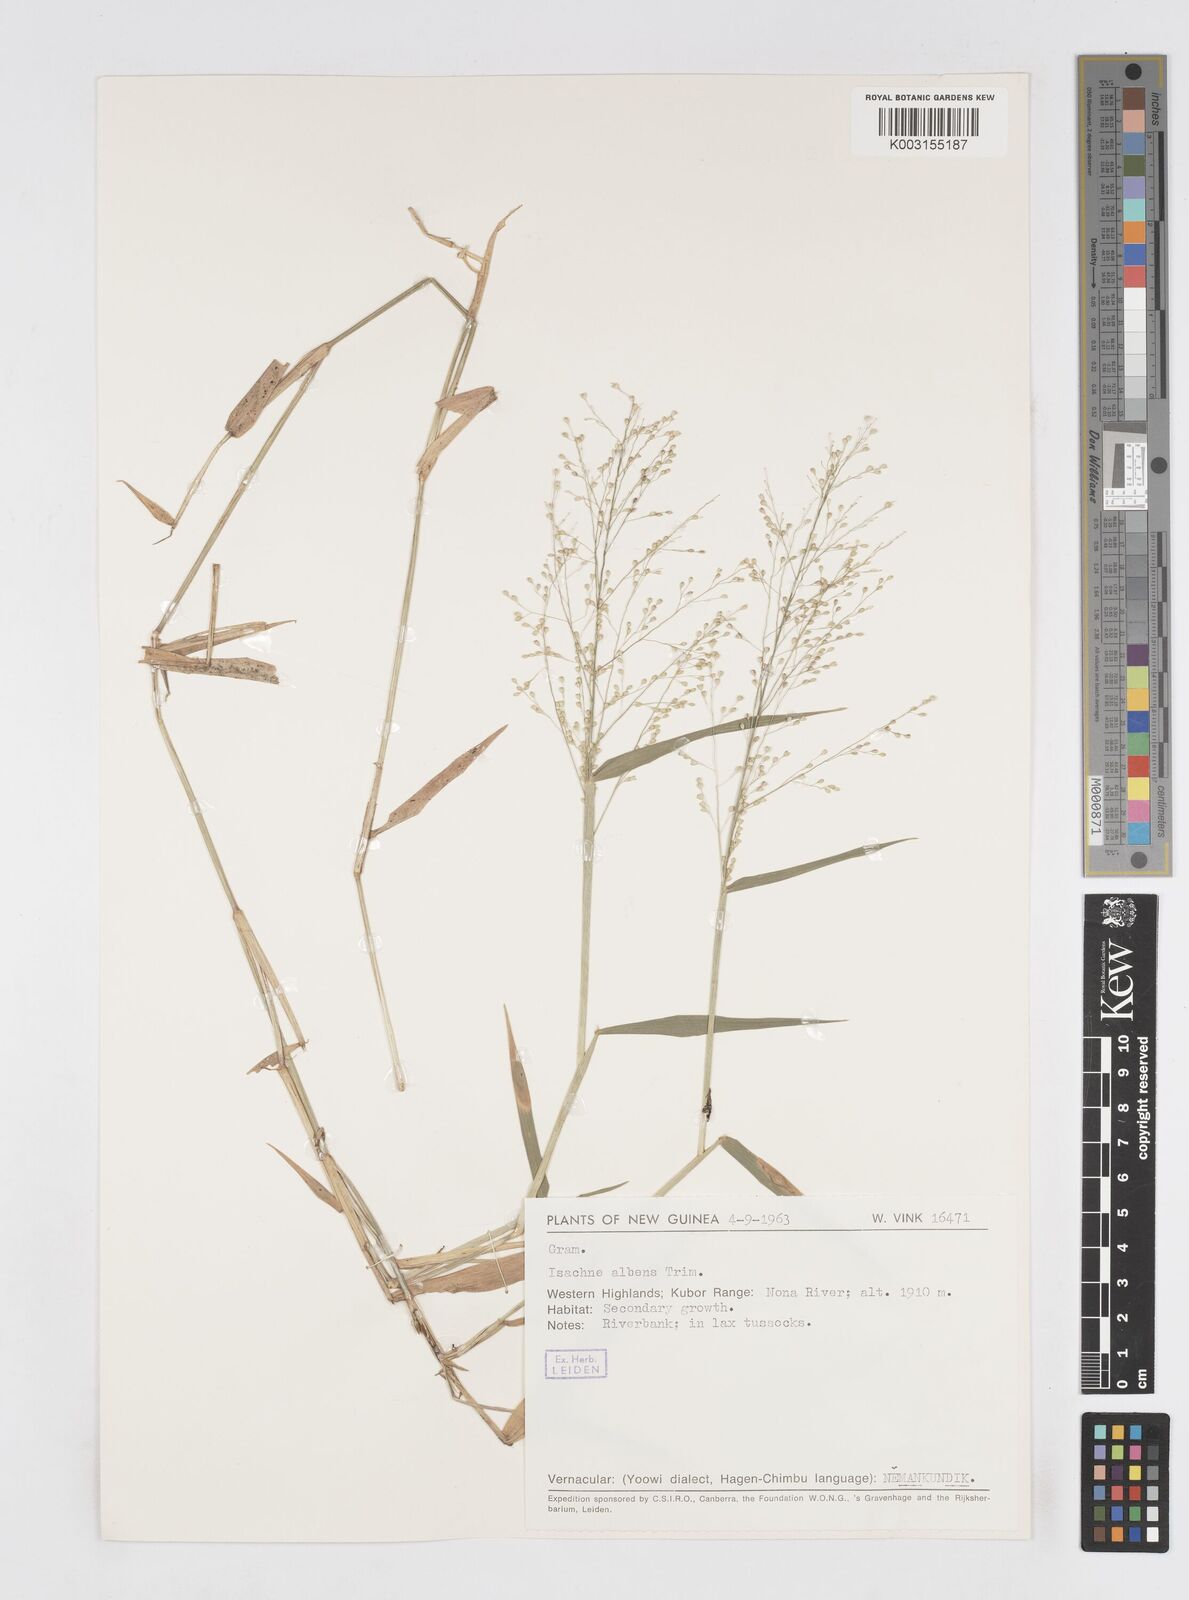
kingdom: Plantae
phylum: Tracheophyta
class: Liliopsida
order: Poales
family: Poaceae
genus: Isachne
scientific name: Isachne albens
